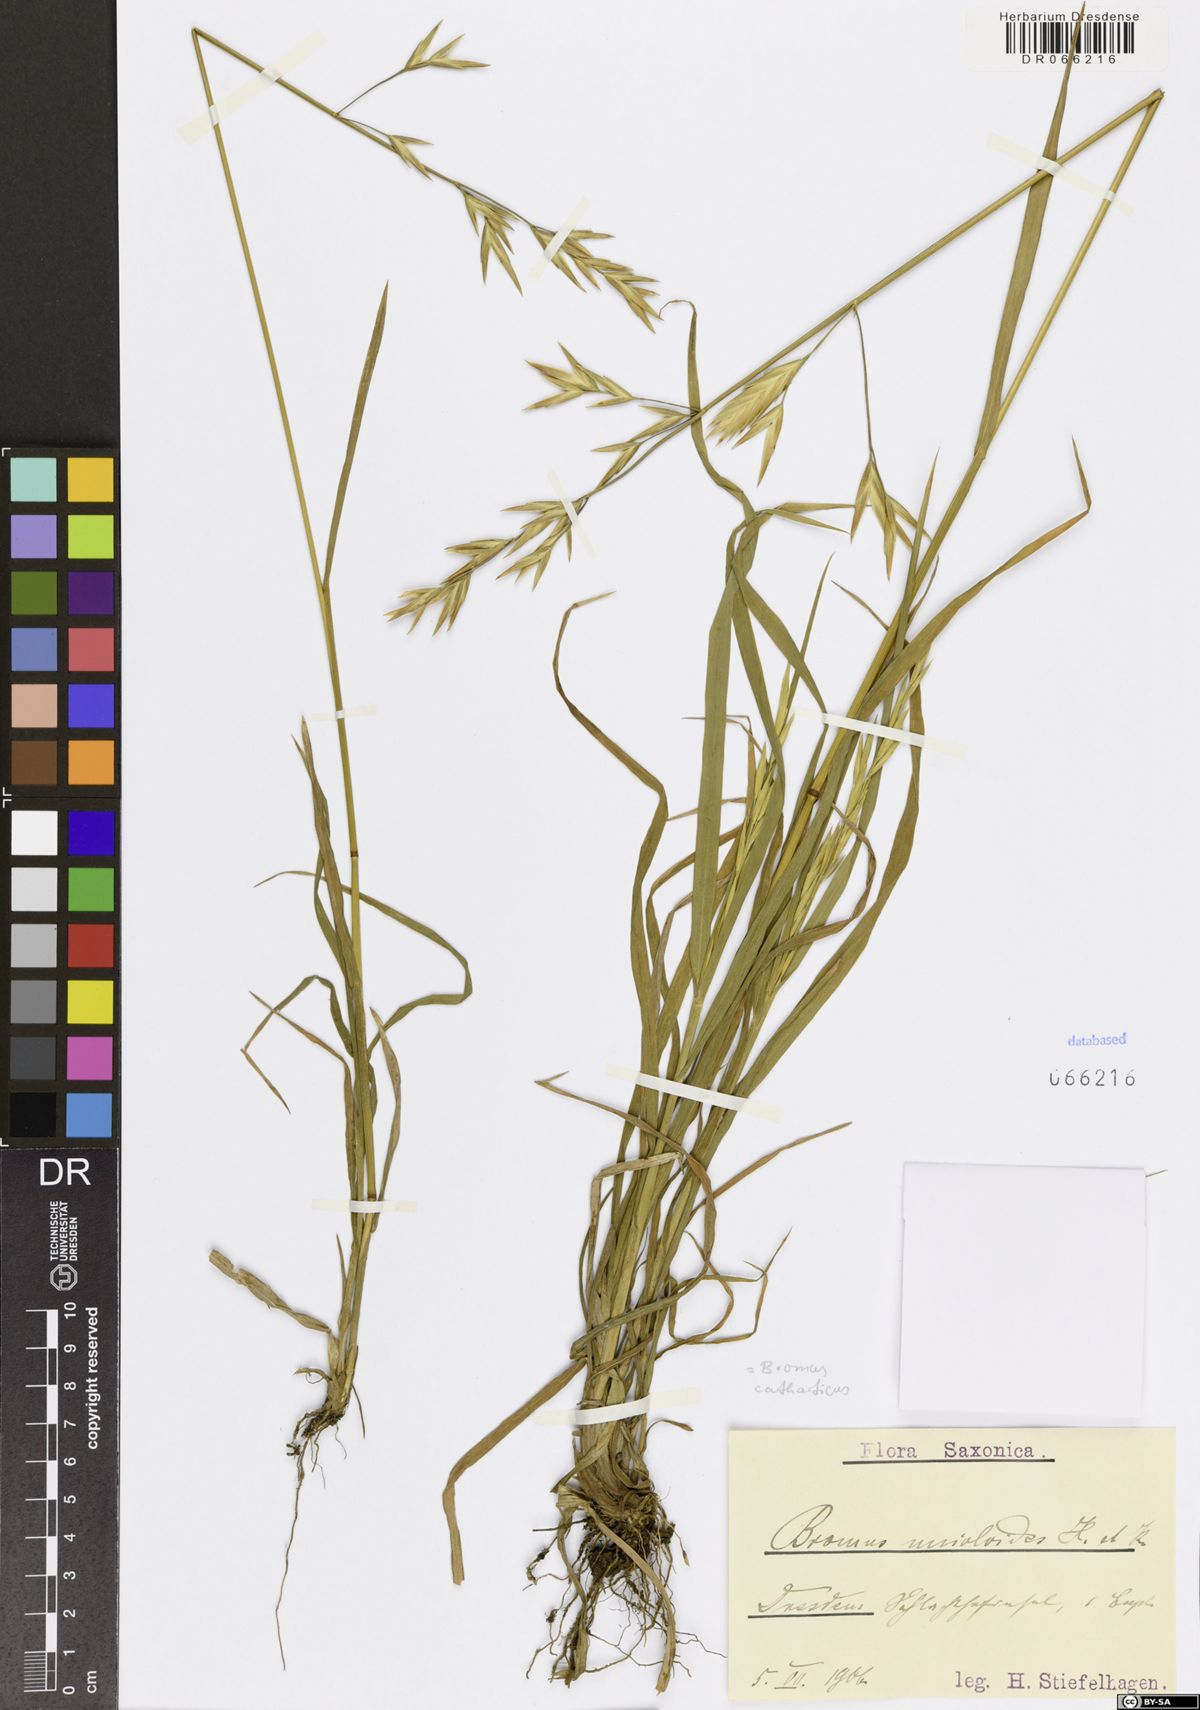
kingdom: Plantae
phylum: Tracheophyta
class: Liliopsida
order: Poales
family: Poaceae
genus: Bromus
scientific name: Bromus catharticus
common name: Rescuegrass
